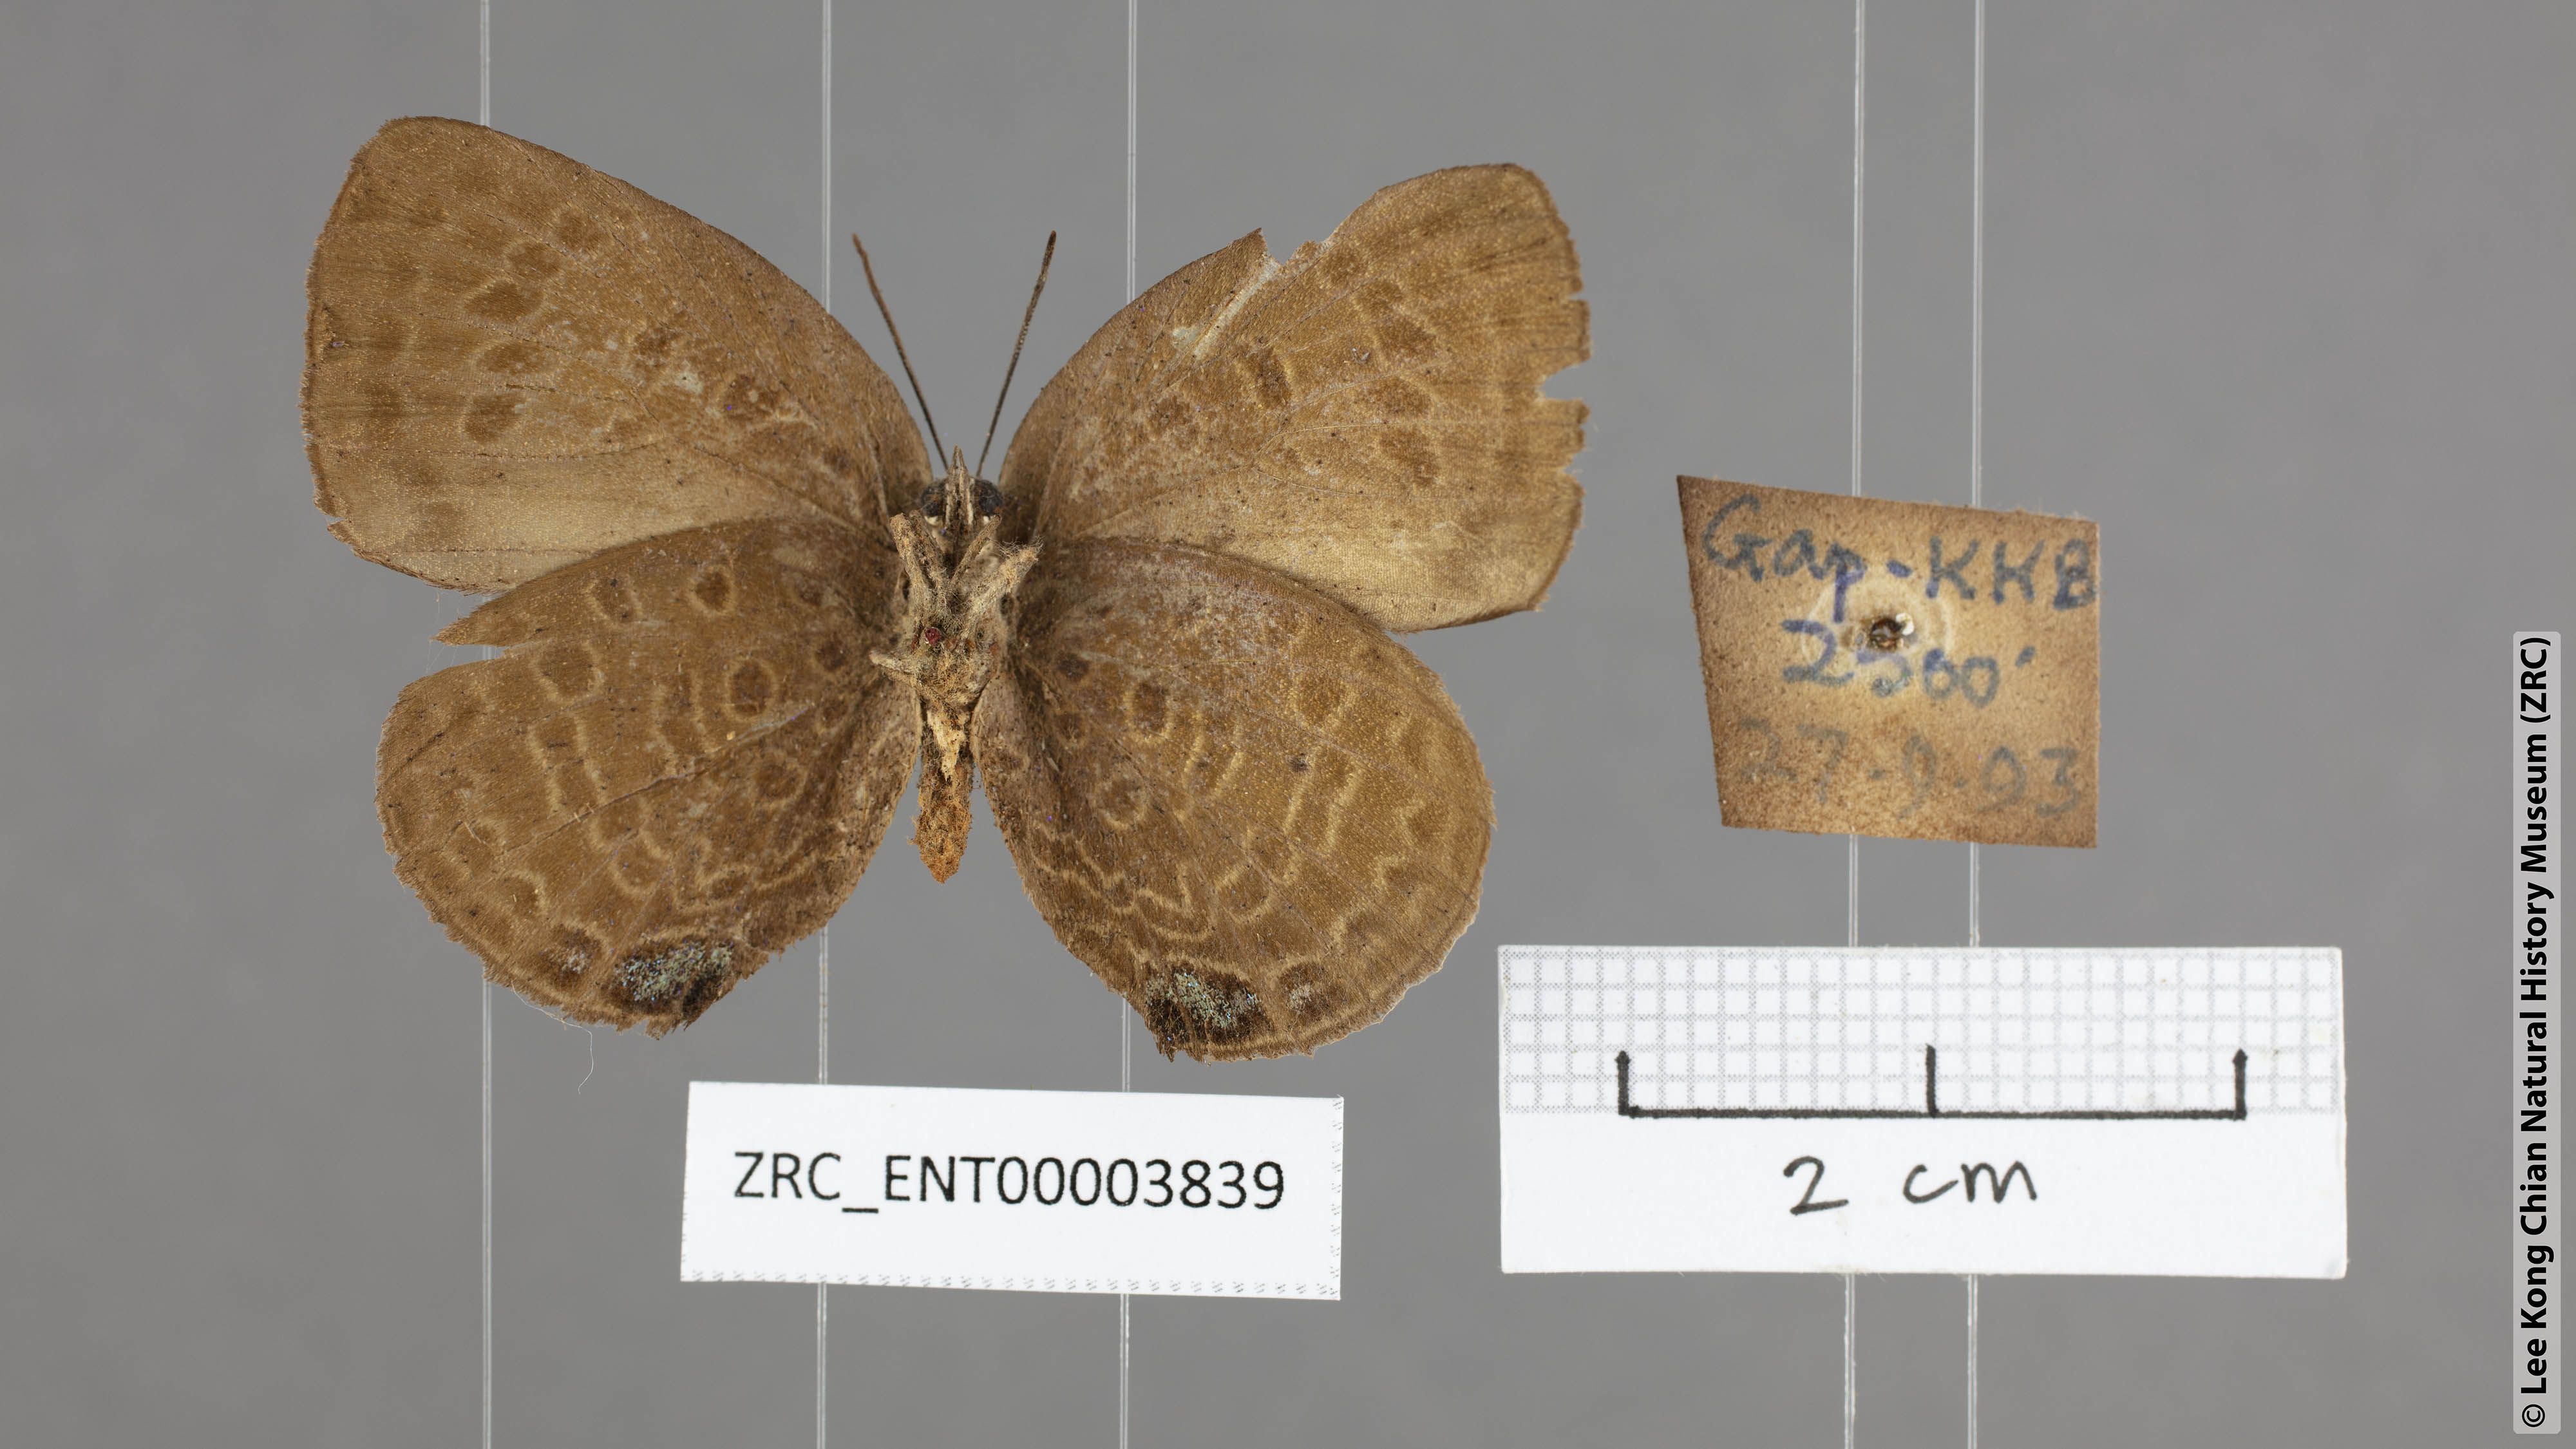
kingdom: Animalia
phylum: Arthropoda
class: Insecta
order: Lepidoptera
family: Lycaenidae
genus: Arhopala
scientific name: Arhopala amphimuta
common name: Broad yellow oakblue
